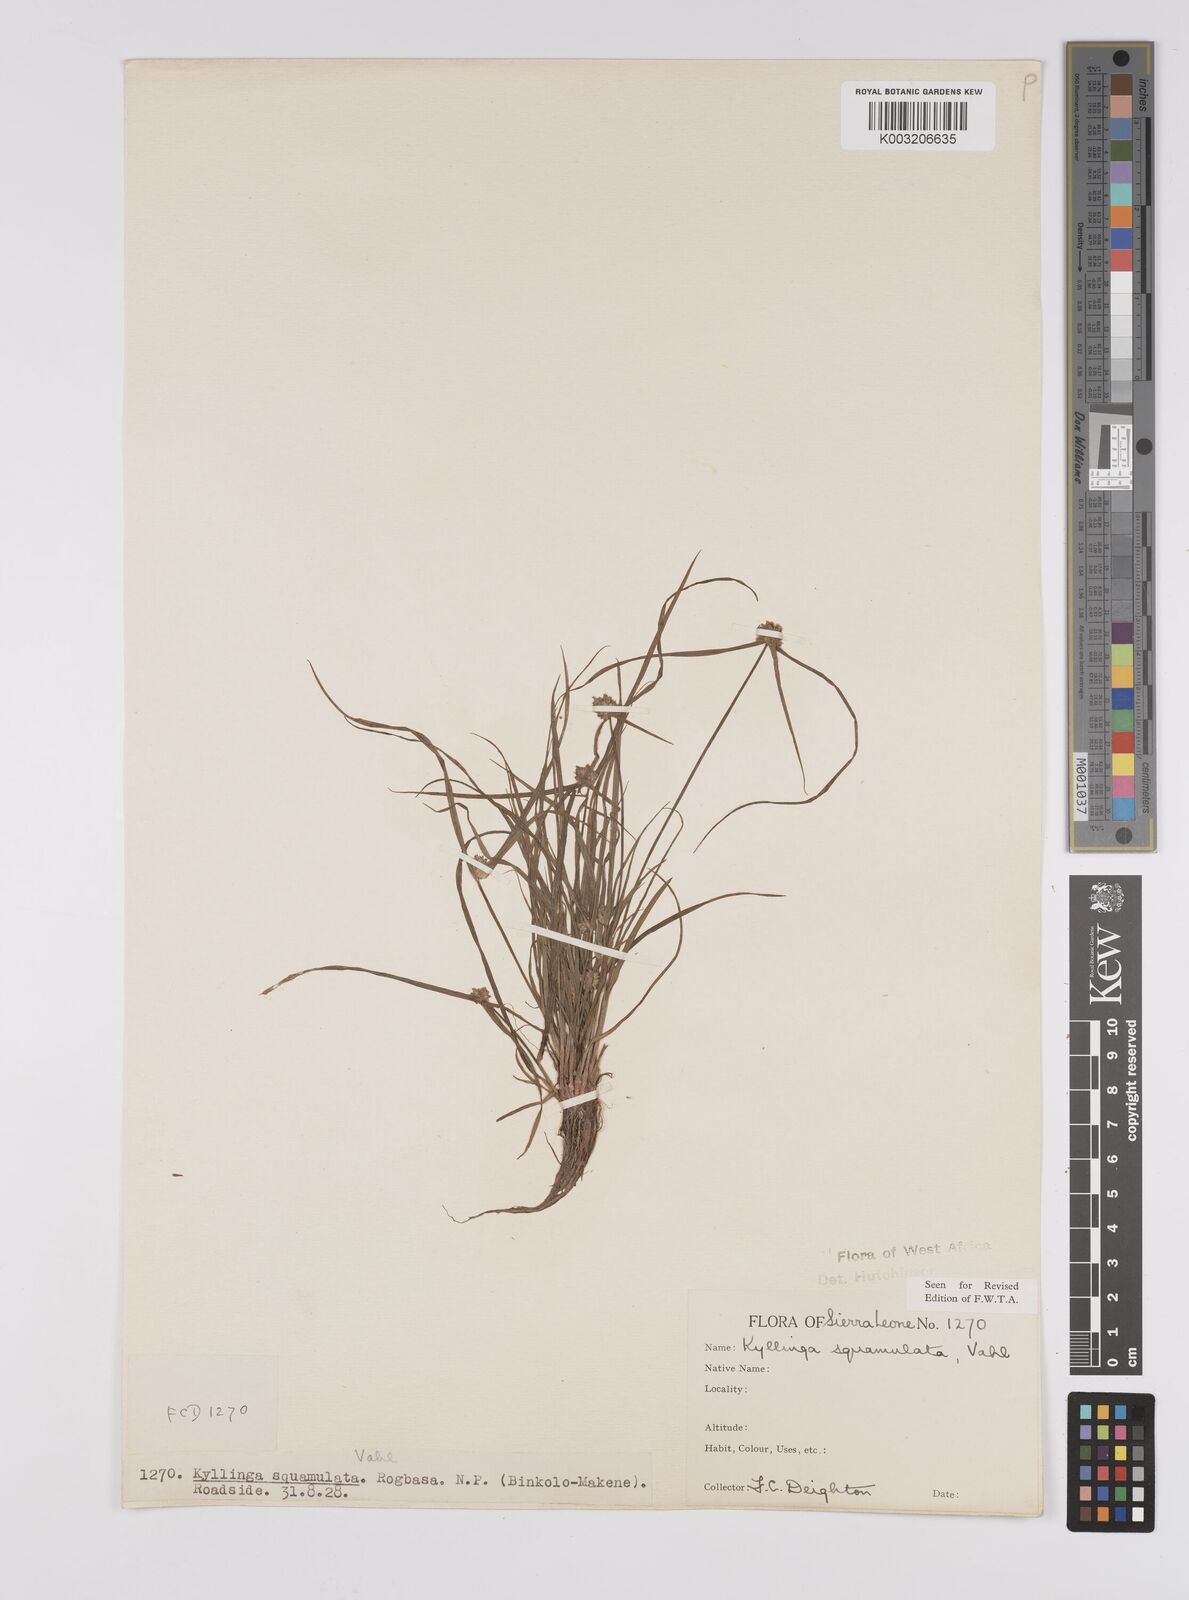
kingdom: Plantae
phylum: Tracheophyta
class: Liliopsida
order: Poales
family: Cyperaceae
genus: Cyperus
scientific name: Cyperus distans
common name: Slender cyperus
